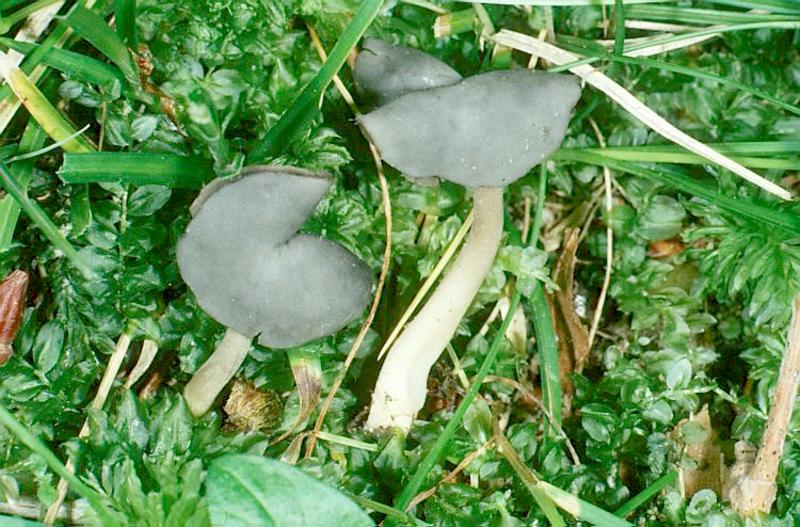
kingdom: Fungi
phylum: Ascomycota
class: Pezizomycetes
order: Pezizales
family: Helvellaceae
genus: Helvella
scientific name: Helvella elastica
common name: Elastic saddle
